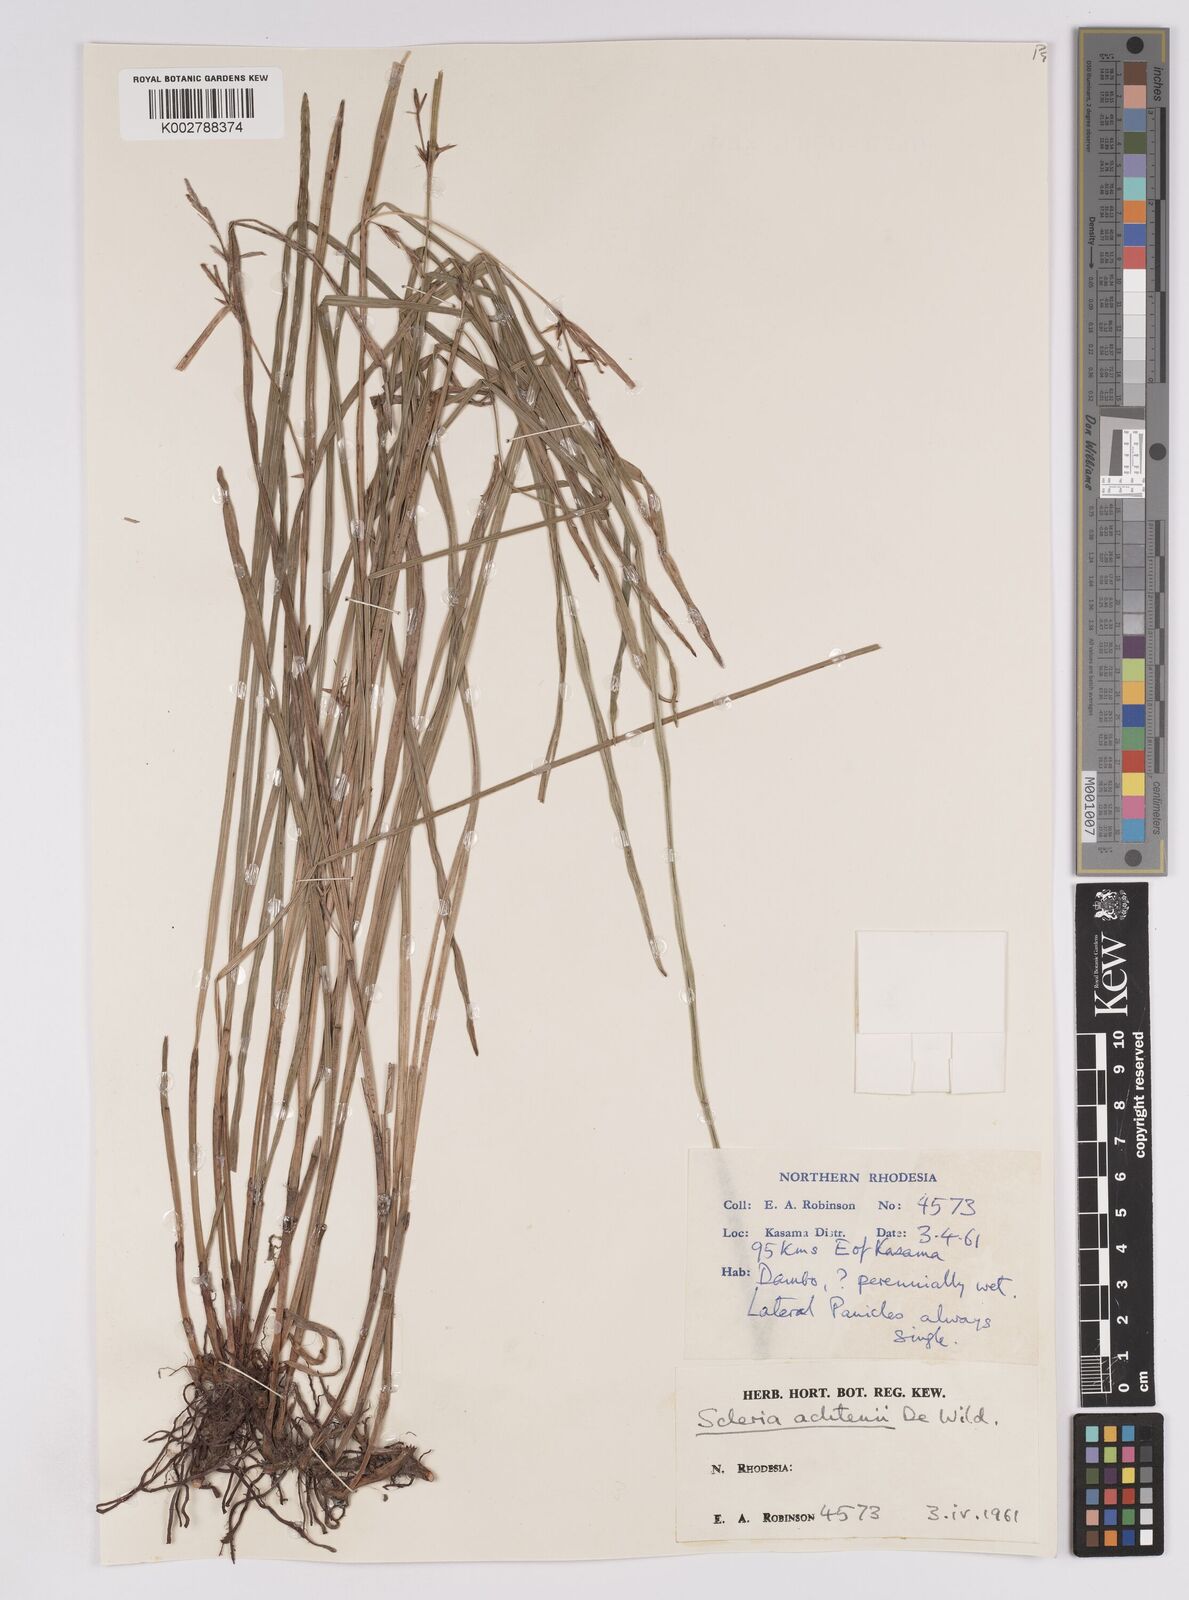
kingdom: Plantae
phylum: Tracheophyta
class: Liliopsida
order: Poales
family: Cyperaceae
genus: Scleria
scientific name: Scleria achtenii
